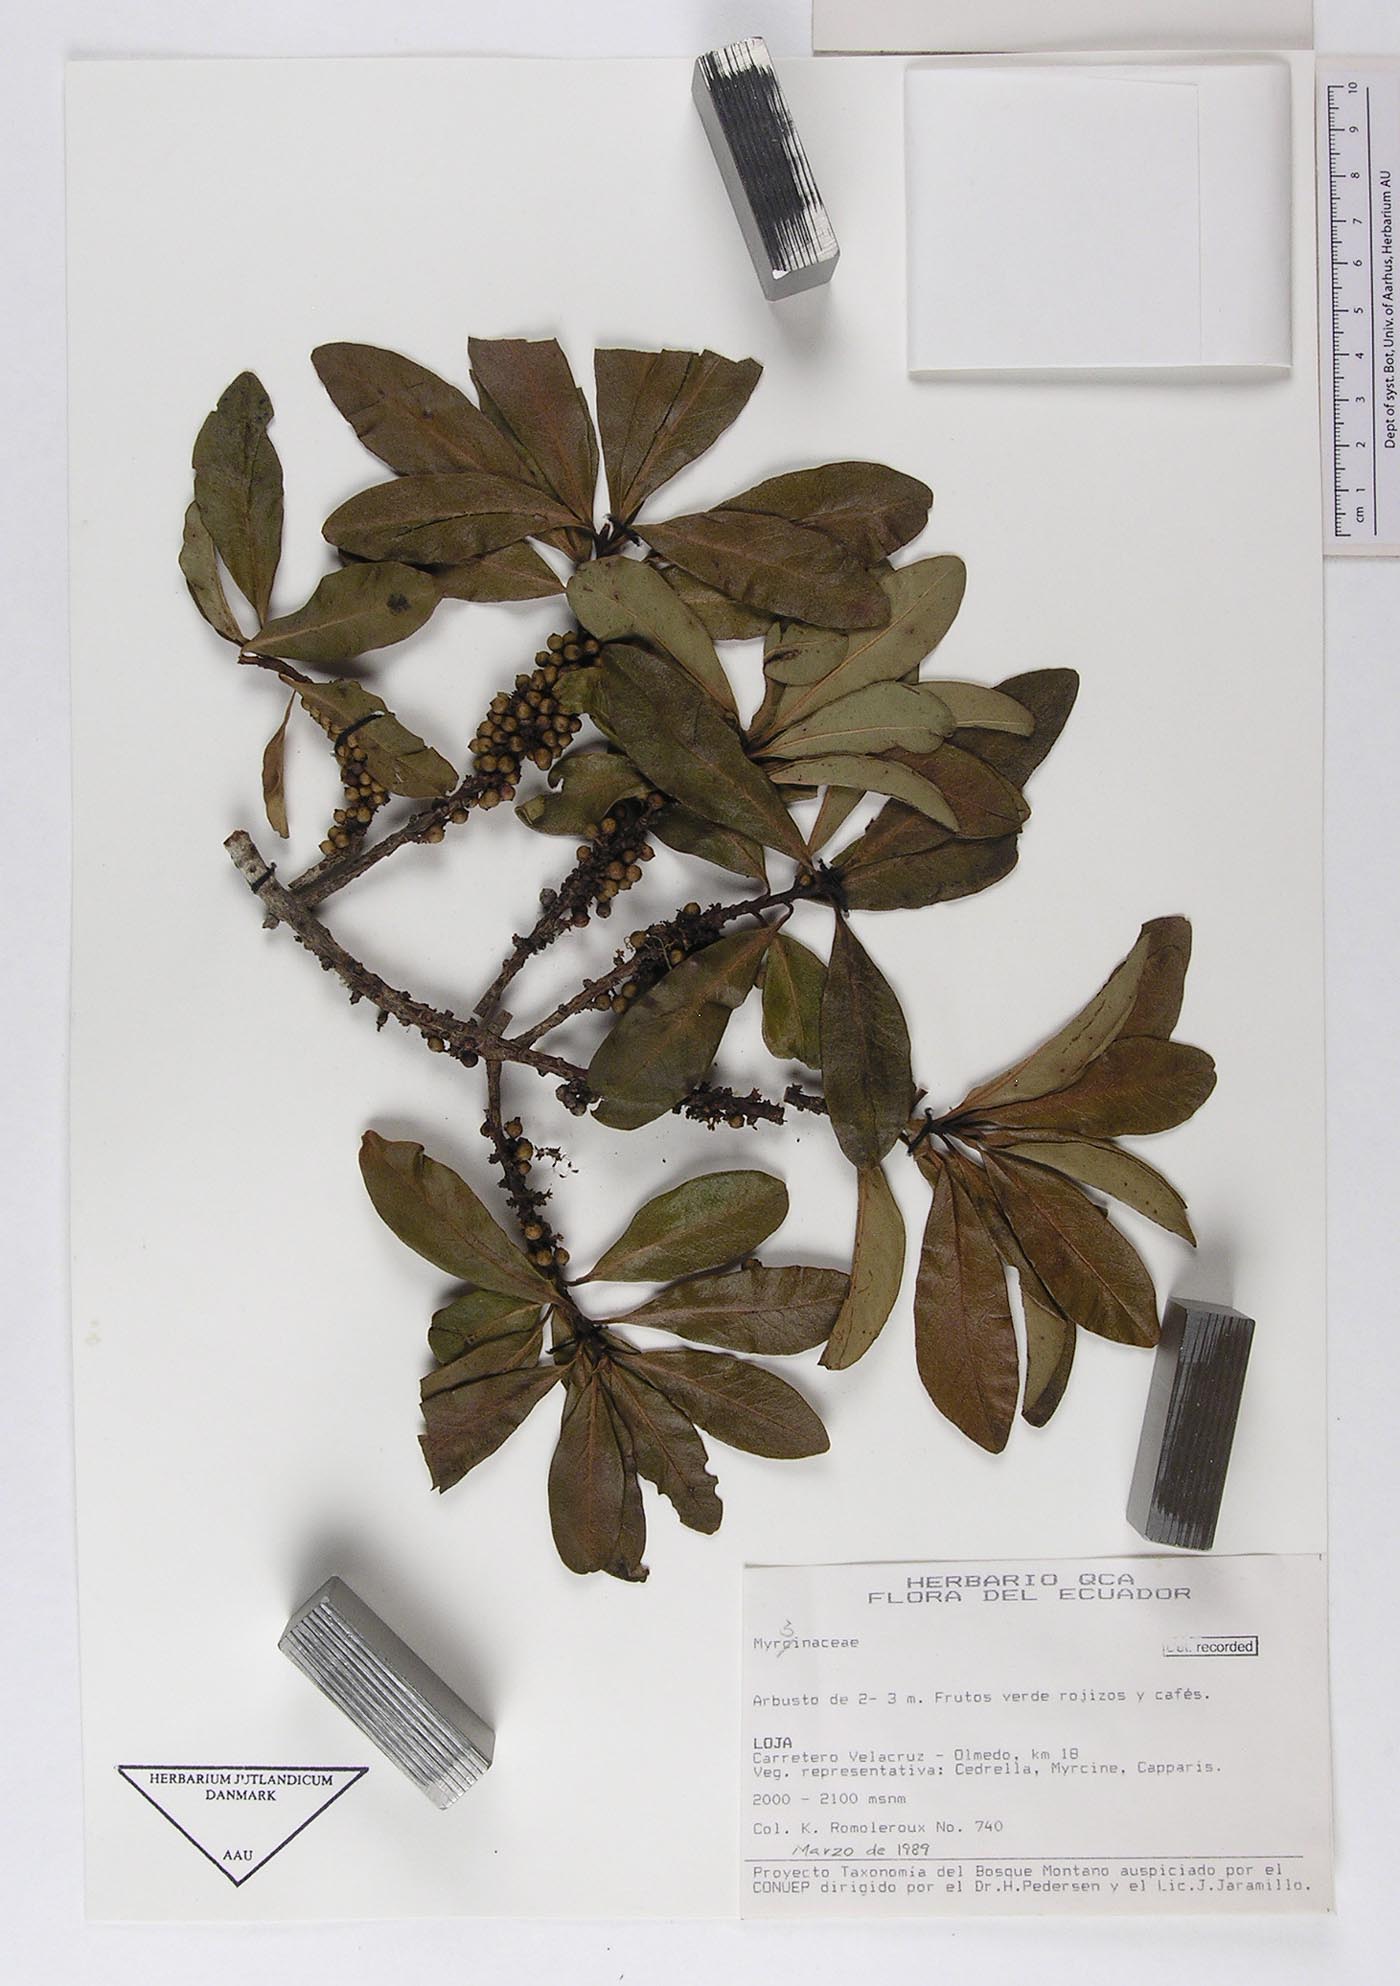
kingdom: Plantae
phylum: Tracheophyta
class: Magnoliopsida
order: Ericales
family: Primulaceae
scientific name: Primulaceae
